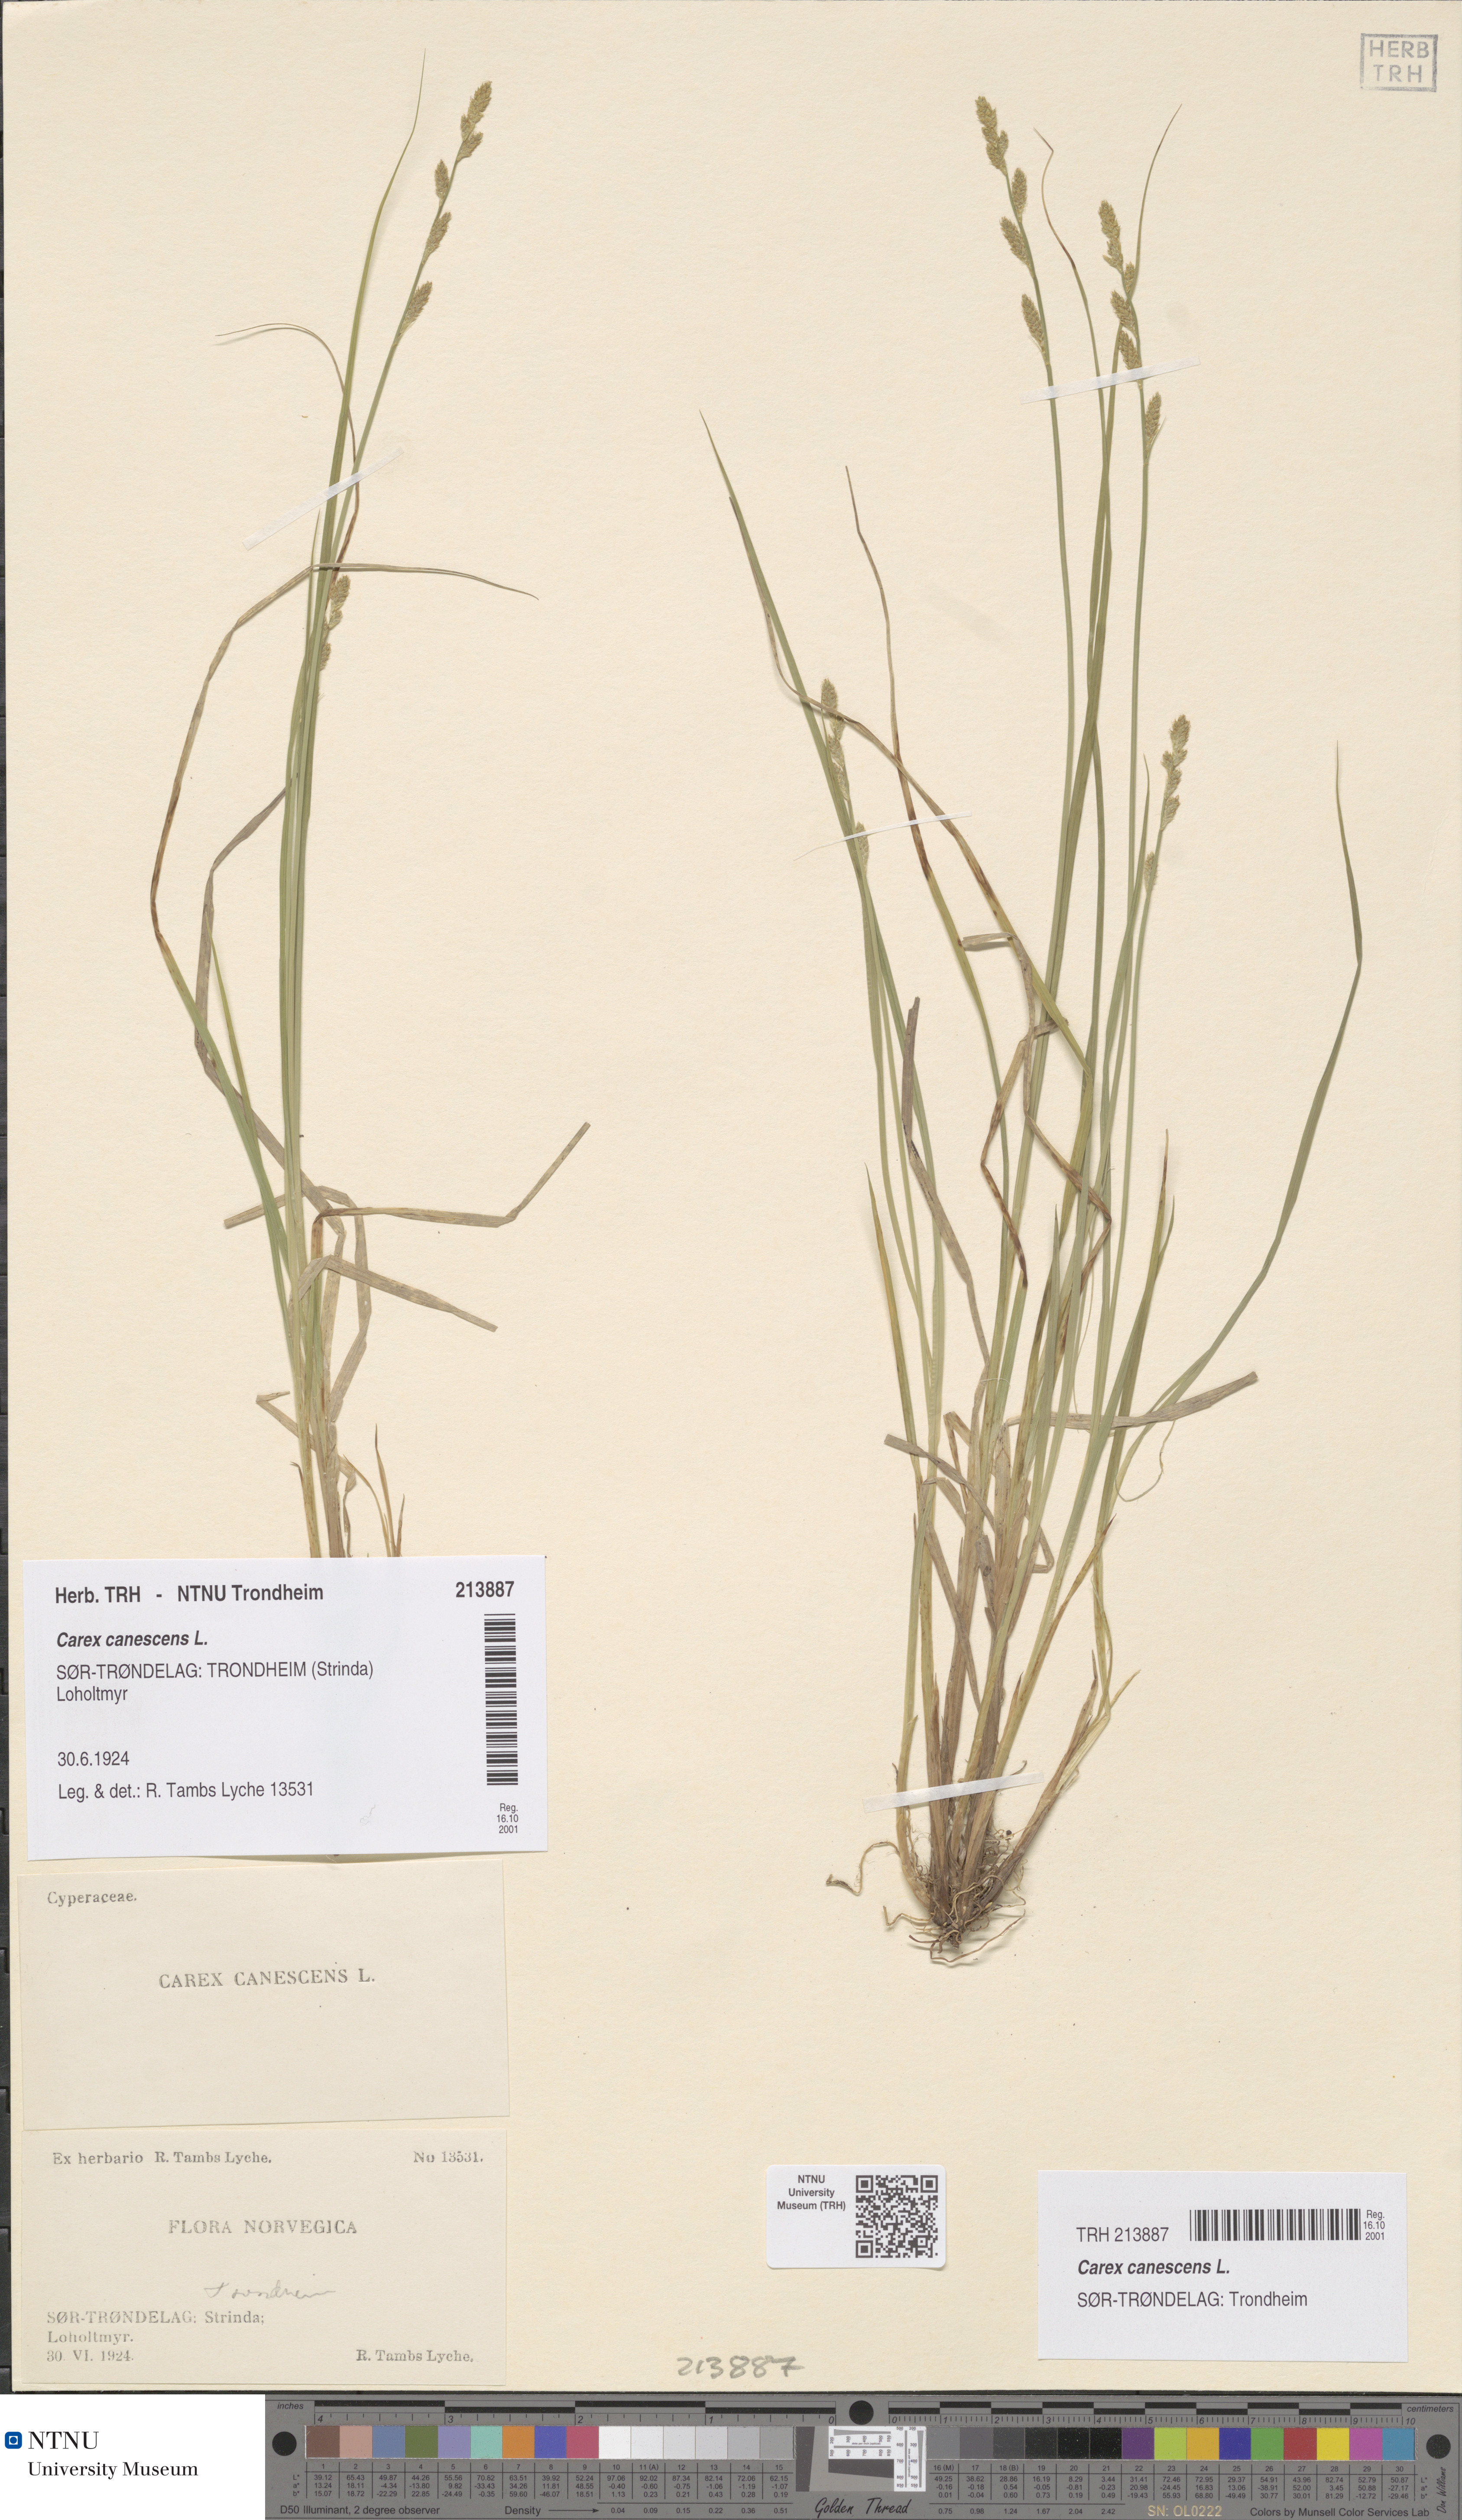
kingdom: Plantae
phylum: Tracheophyta
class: Liliopsida
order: Poales
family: Cyperaceae
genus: Carex
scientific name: Carex canescens
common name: White sedge
